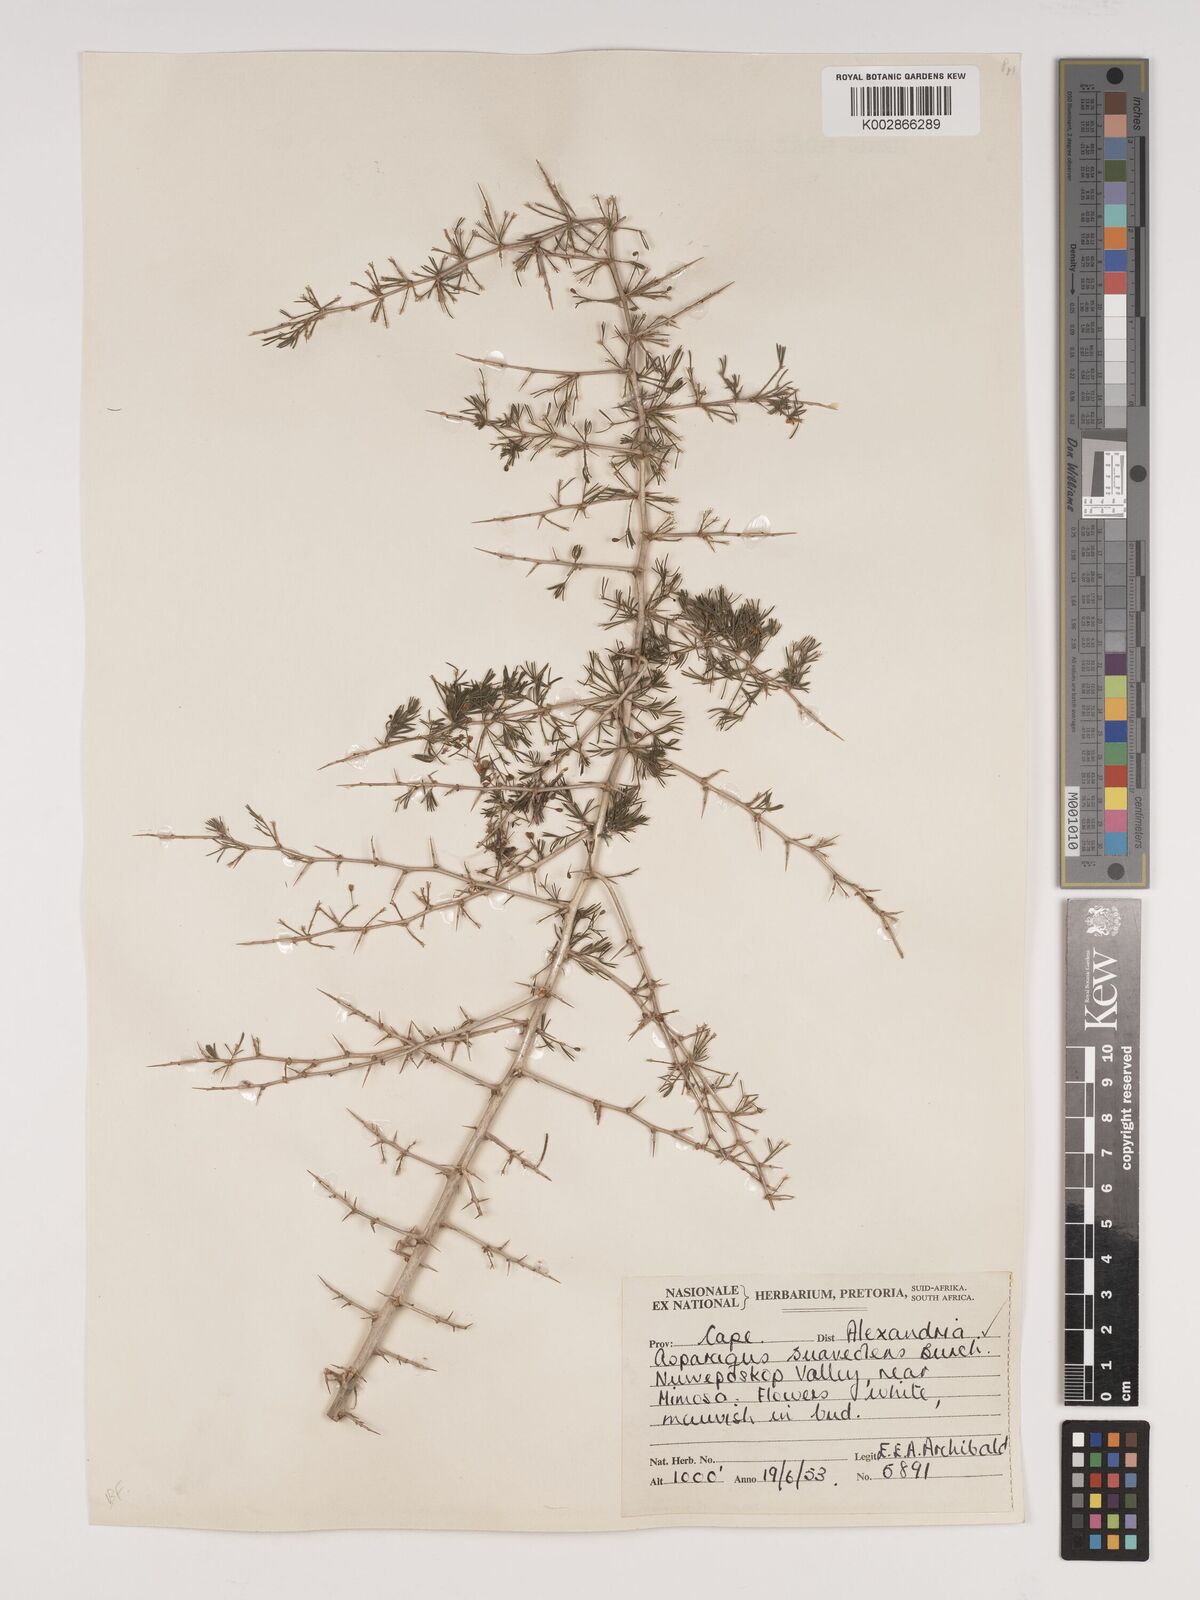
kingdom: Plantae
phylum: Tracheophyta
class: Liliopsida
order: Asparagales
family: Asparagaceae
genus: Asparagus
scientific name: Asparagus suaveolens
